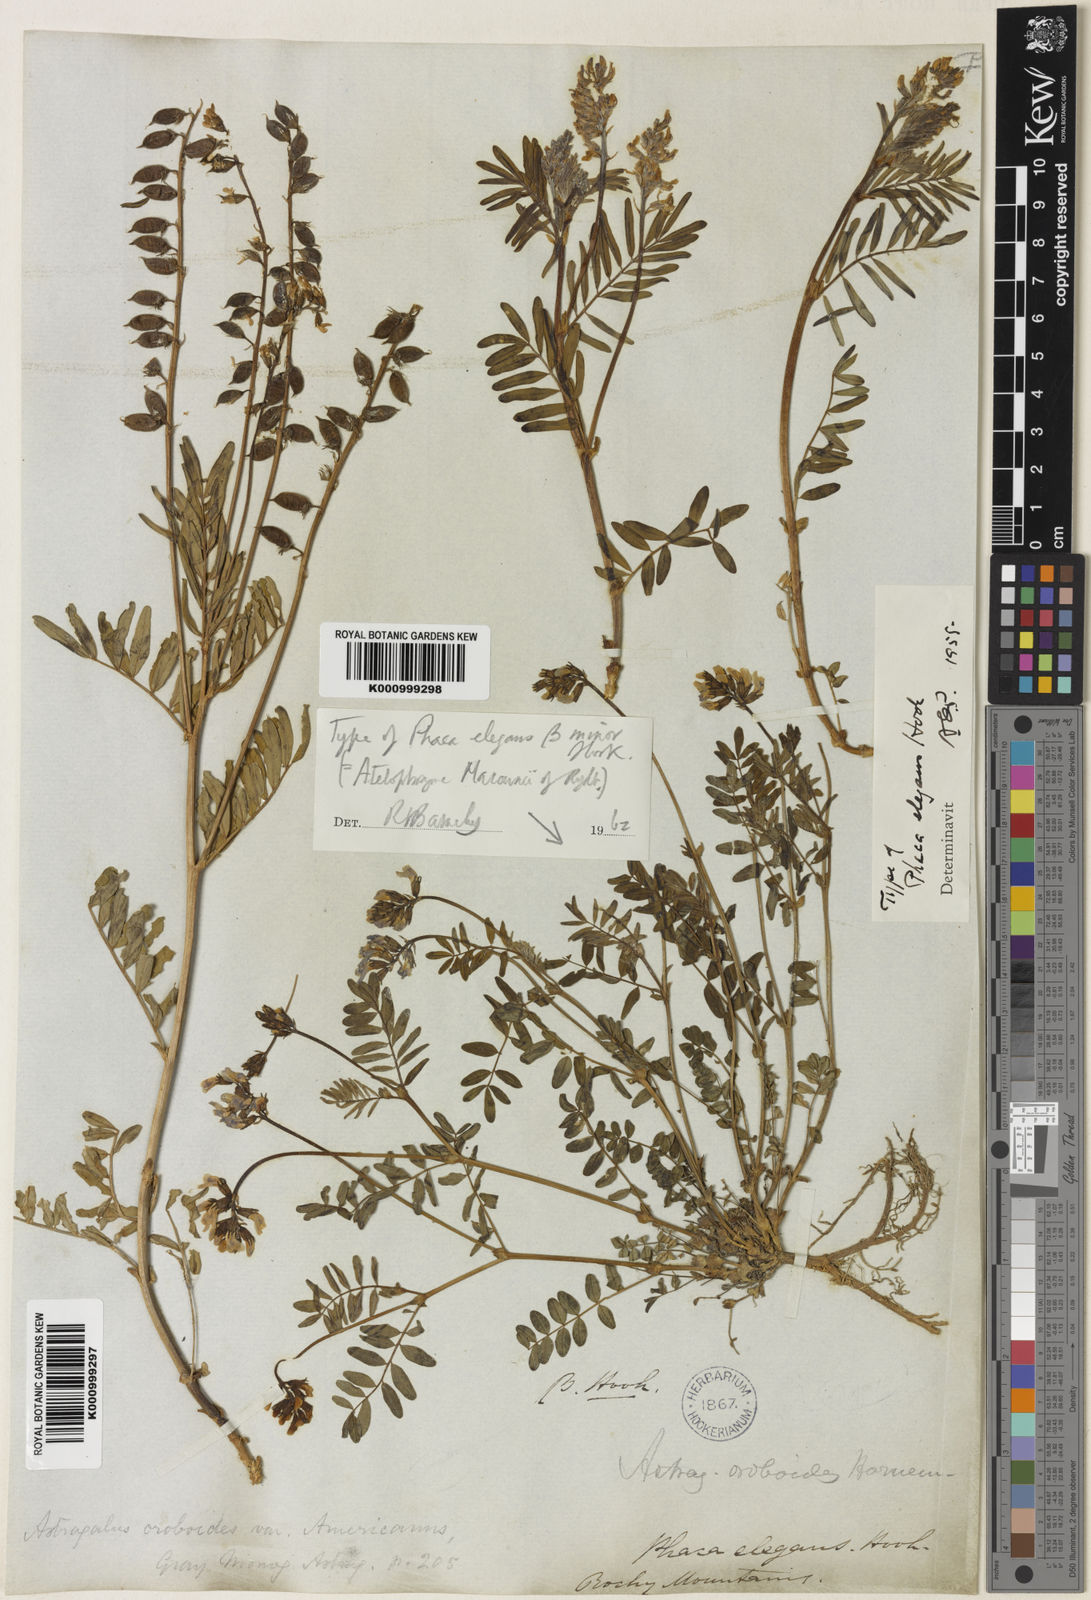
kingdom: Plantae
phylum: Tracheophyta
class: Magnoliopsida
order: Fabales
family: Fabaceae
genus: Astragalus
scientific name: Astragalus norvegicus
